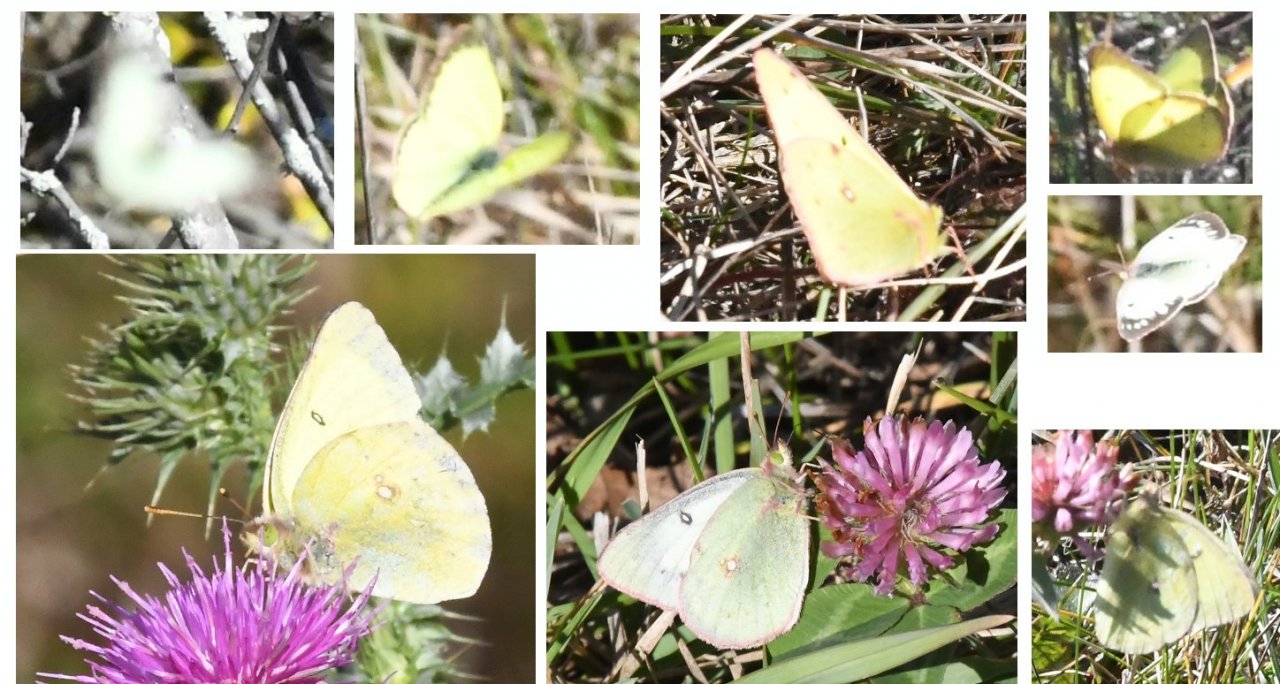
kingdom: Animalia
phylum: Arthropoda
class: Insecta
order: Lepidoptera
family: Pieridae
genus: Colias
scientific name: Colias philodice
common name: Clouded Sulphur
